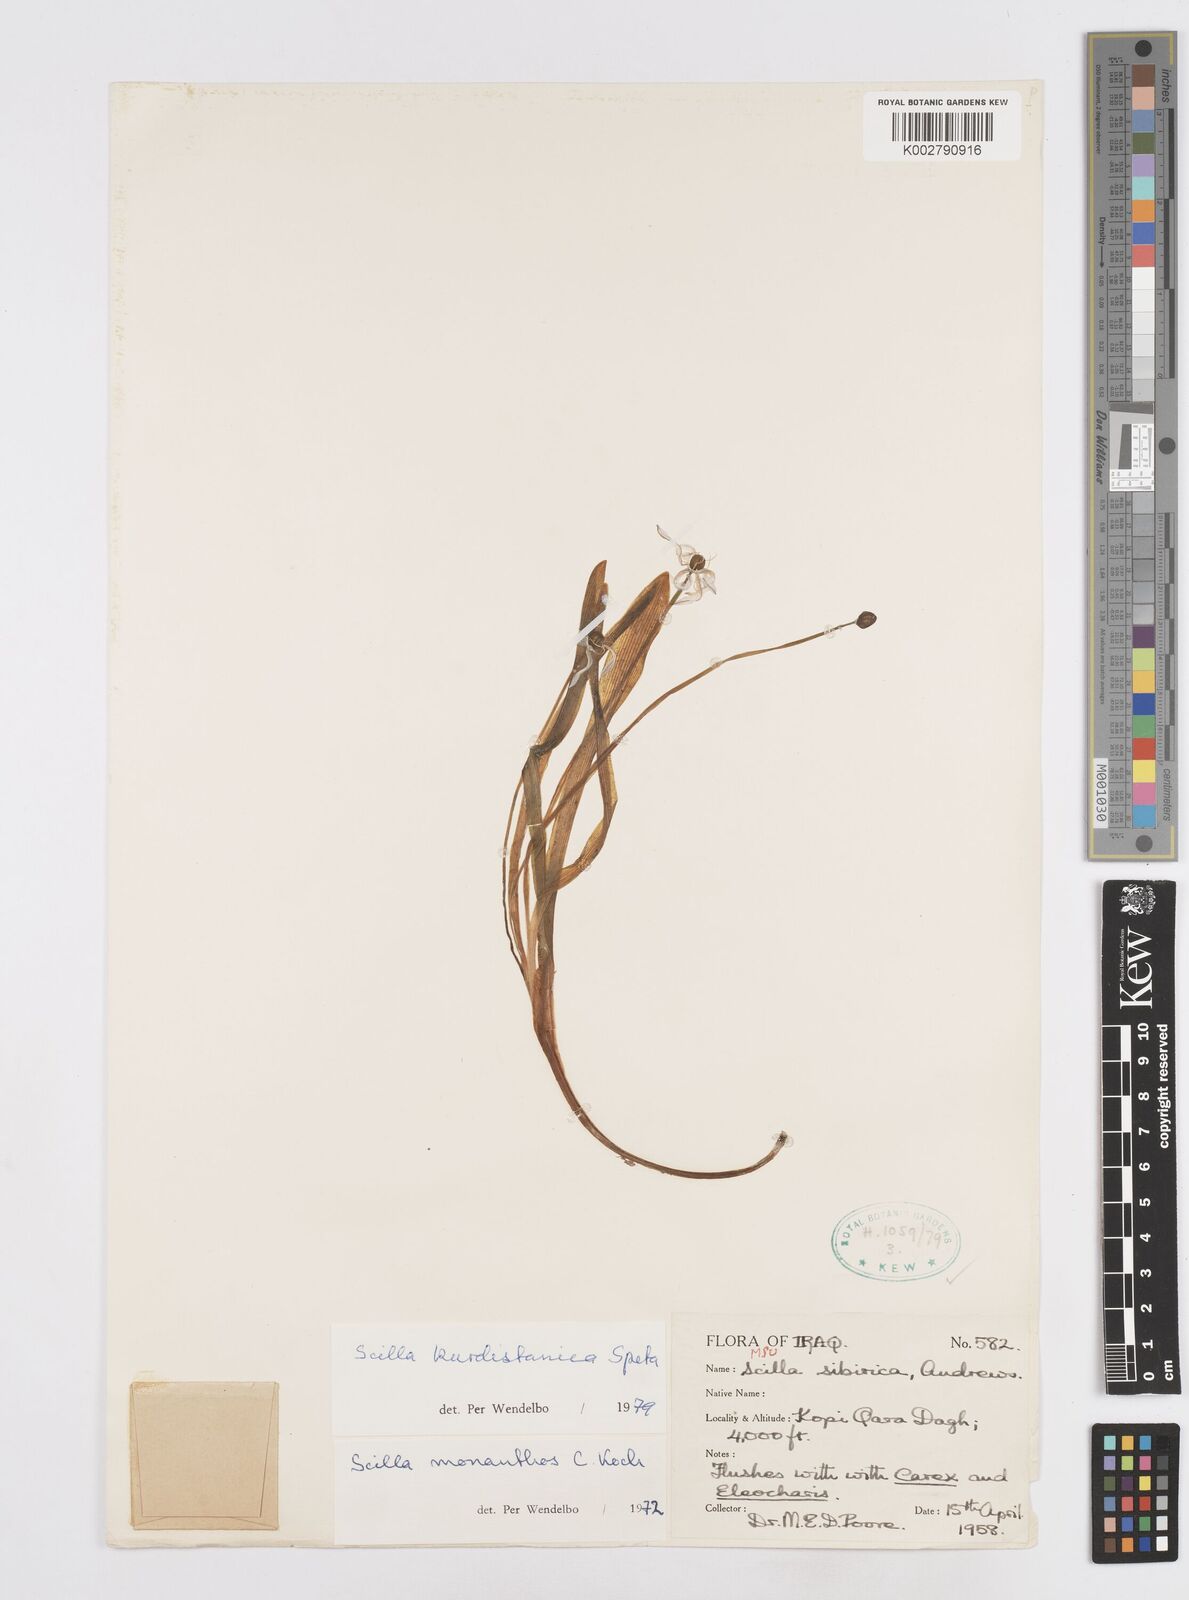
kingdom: Plantae
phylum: Tracheophyta
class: Liliopsida
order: Asparagales
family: Asparagaceae
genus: Scilla
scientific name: Scilla kurdistanica
